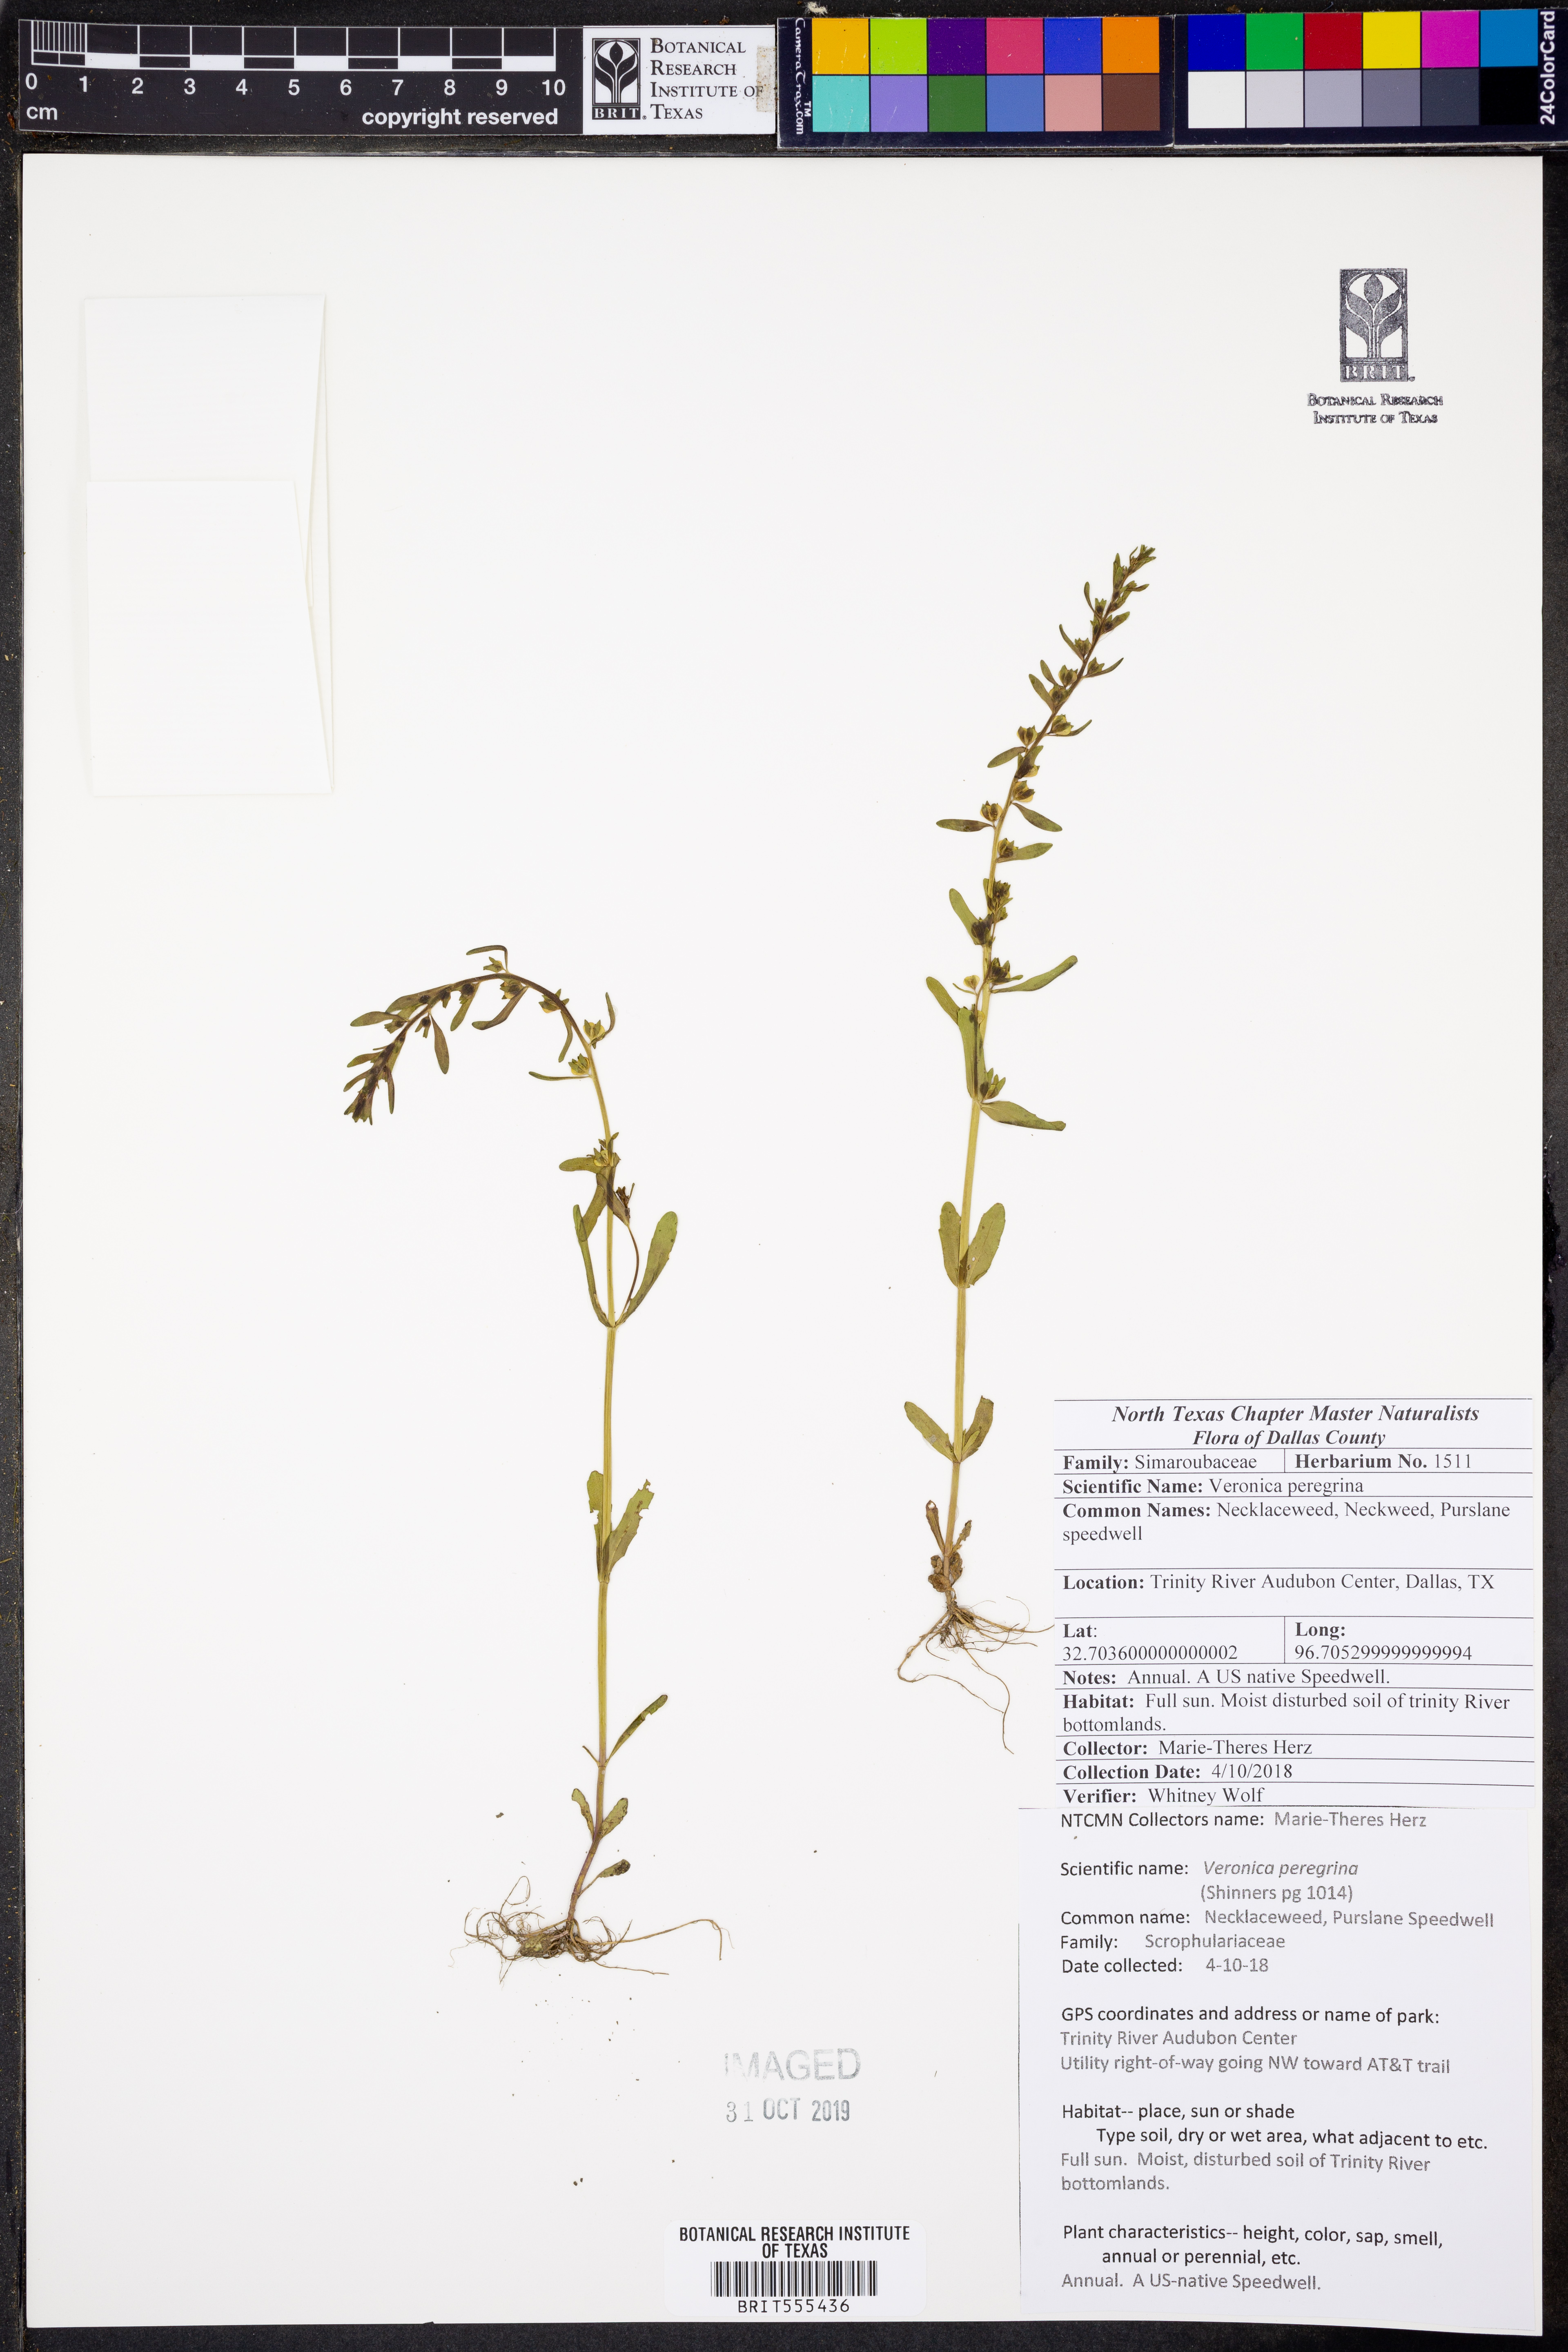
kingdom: Plantae
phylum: Tracheophyta
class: Magnoliopsida
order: Lamiales
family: Plantaginaceae
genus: Veronica
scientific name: Veronica peregrina
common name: Neckweed
